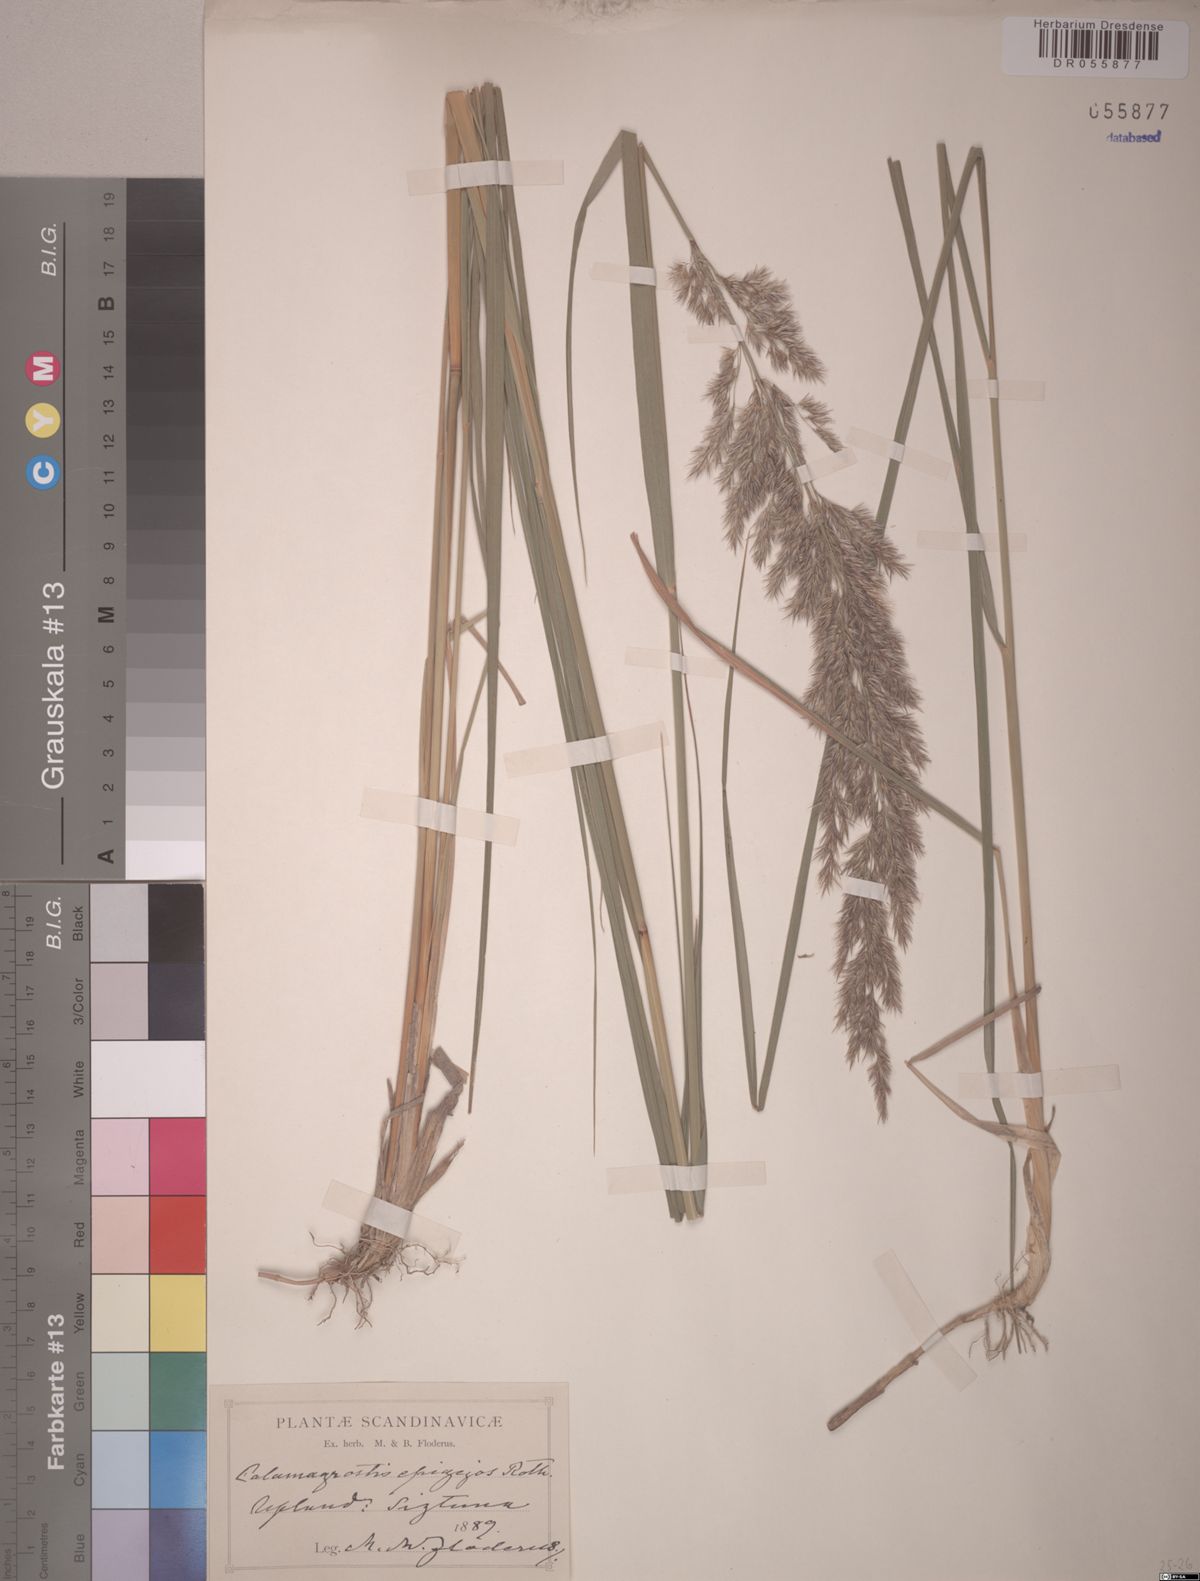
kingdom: Plantae
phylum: Tracheophyta
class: Liliopsida
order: Poales
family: Poaceae
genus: Calamagrostis
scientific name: Calamagrostis epigejos
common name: Wood small-reed
